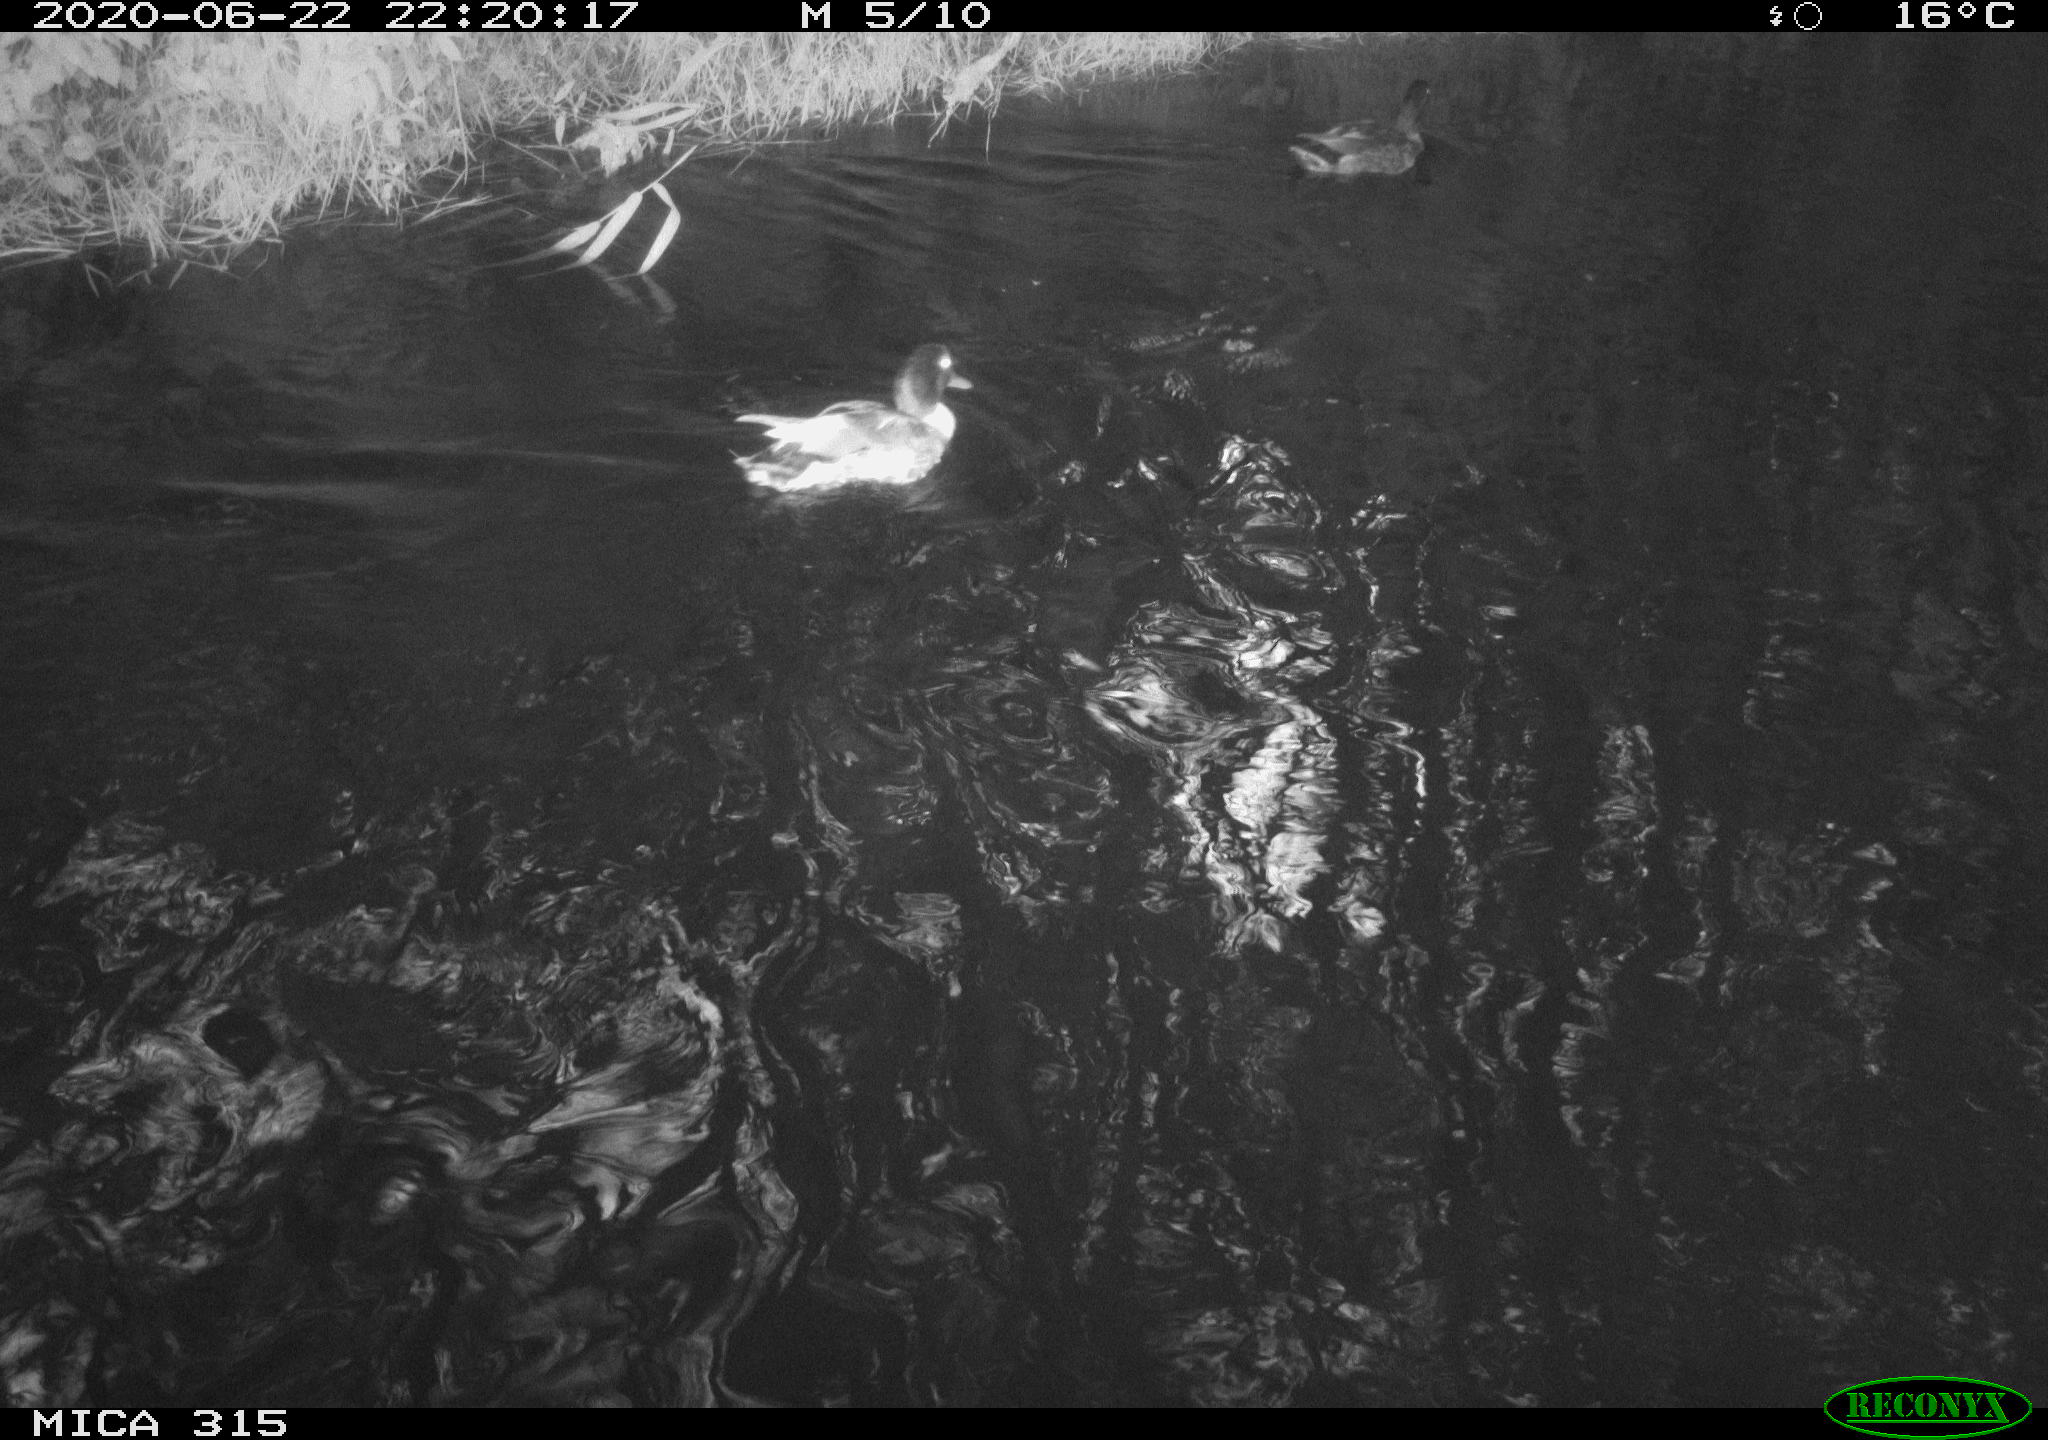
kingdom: Animalia
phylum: Chordata
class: Aves
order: Anseriformes
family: Anatidae
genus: Anas
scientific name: Anas platyrhynchos
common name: Mallard
